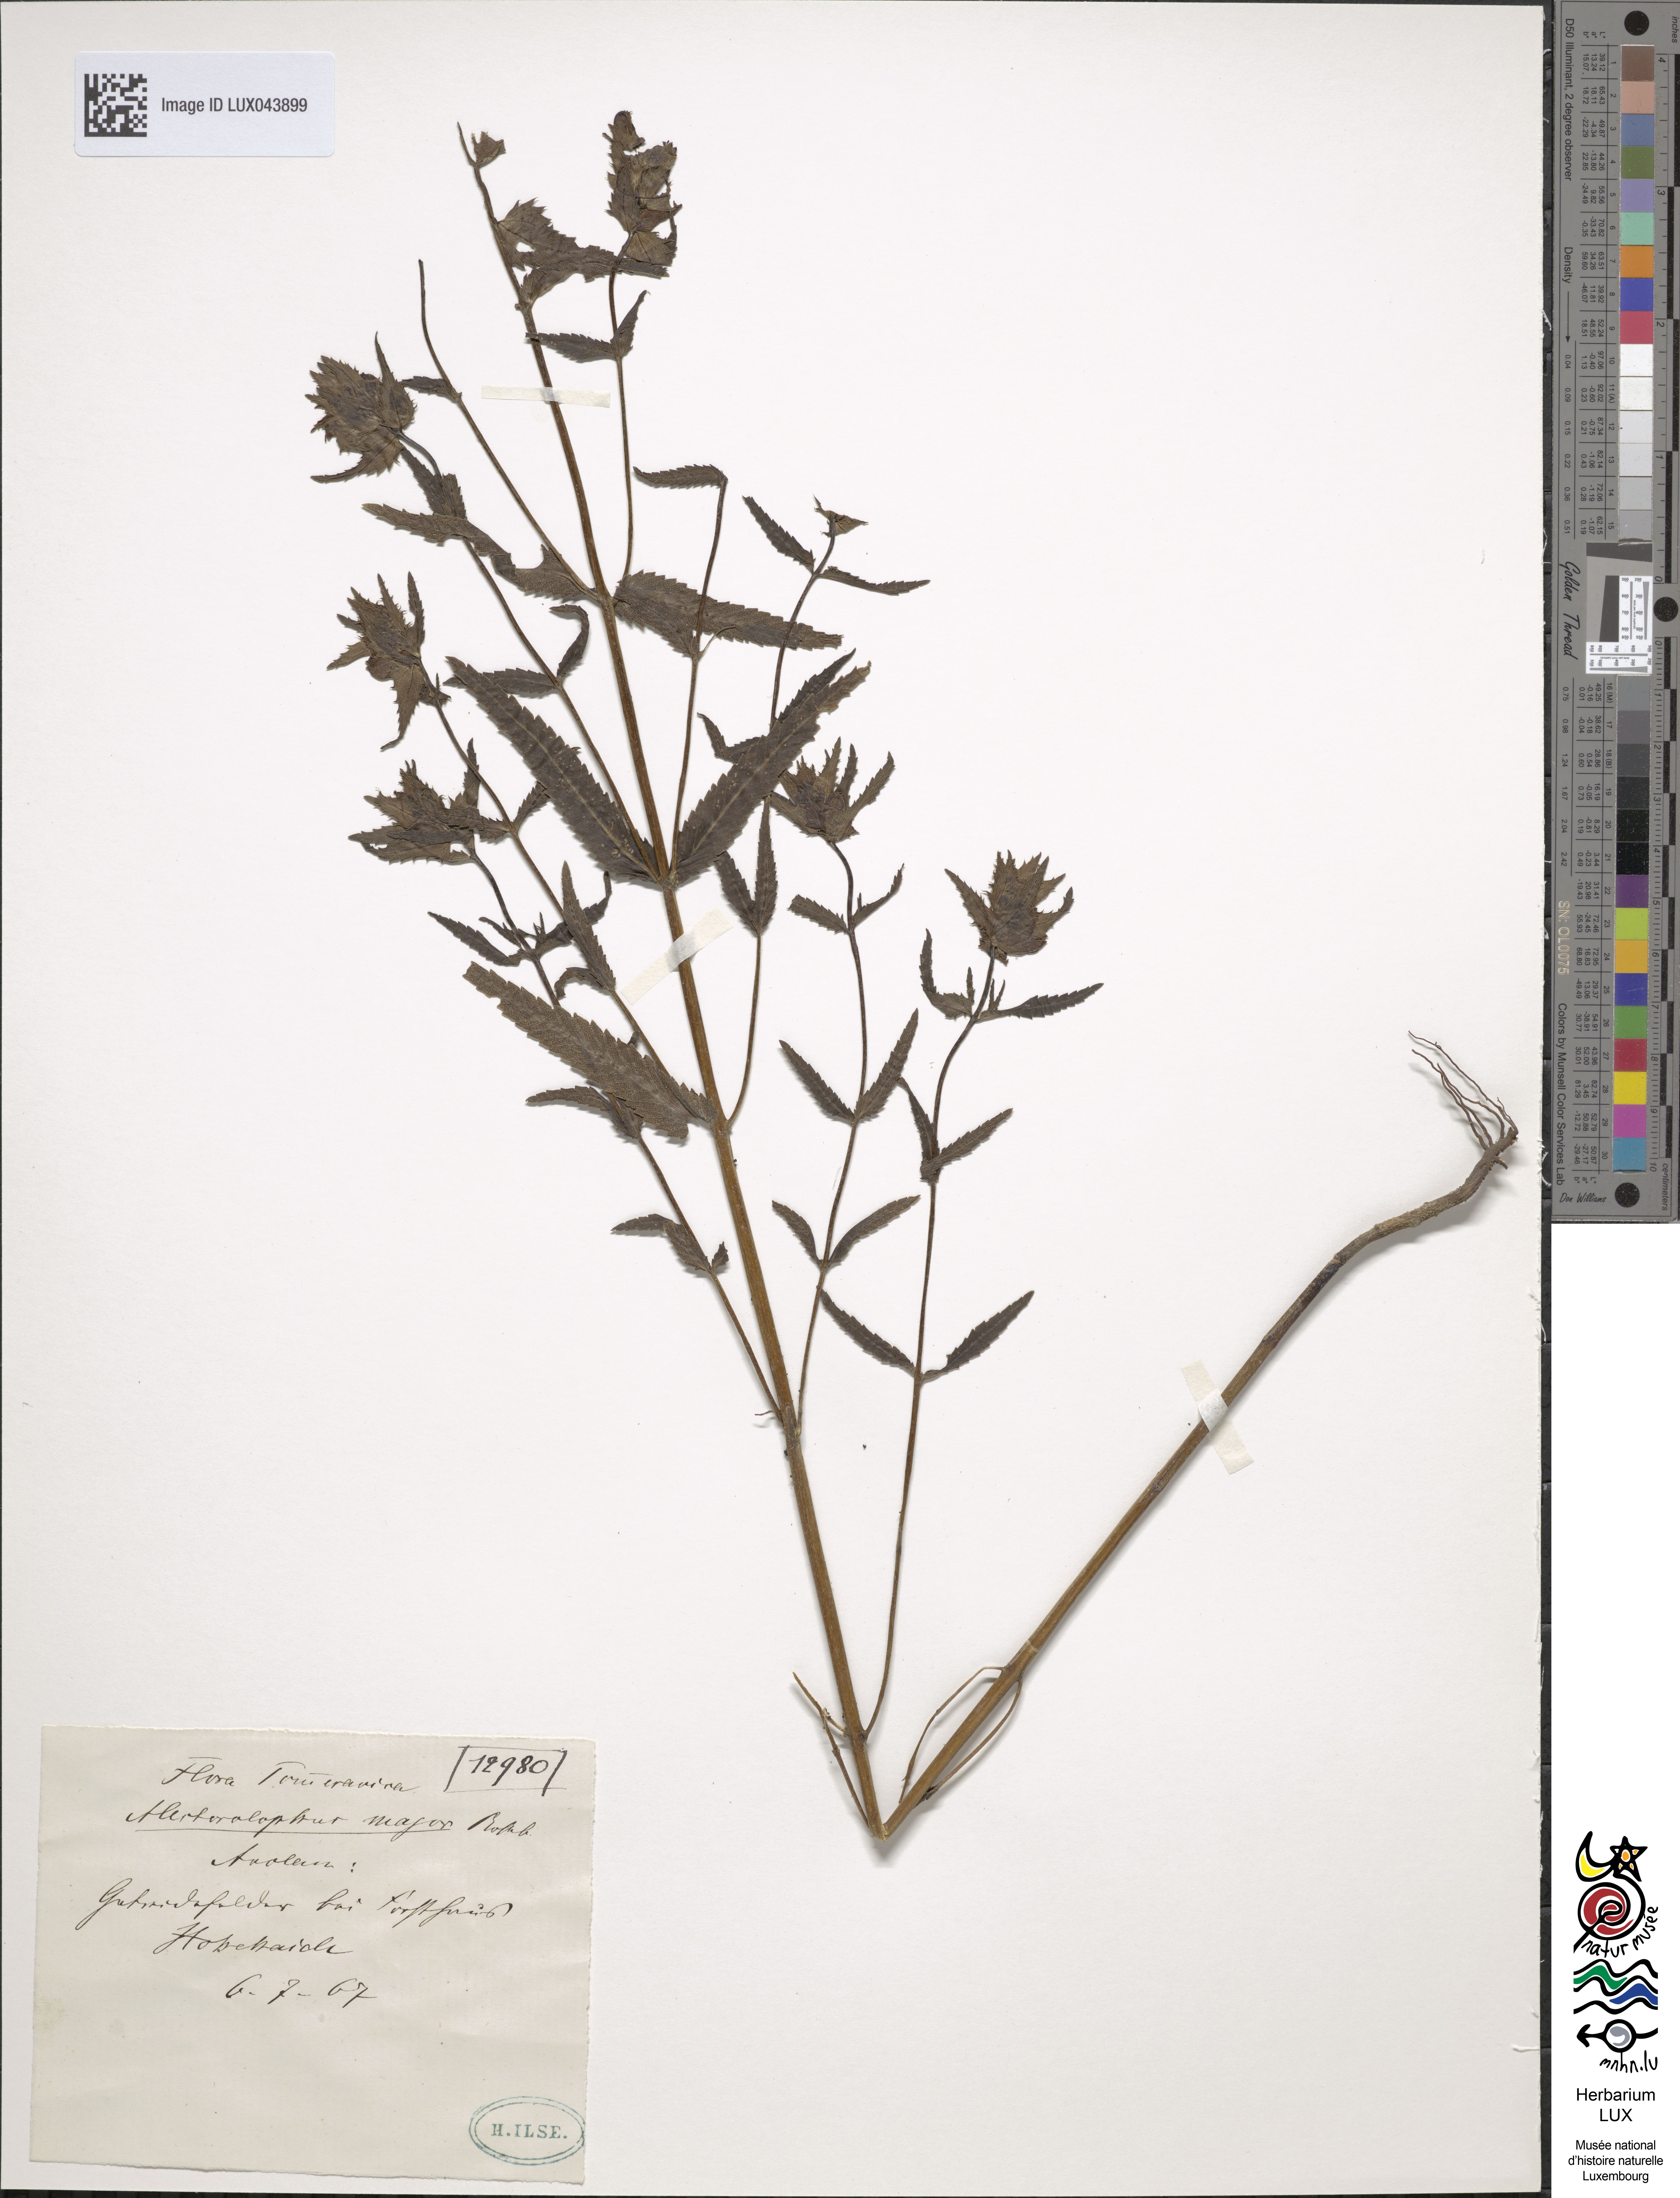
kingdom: Plantae
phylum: Tracheophyta
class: Magnoliopsida
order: Lamiales
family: Orobanchaceae
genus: Rhinanthus
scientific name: Rhinanthus
